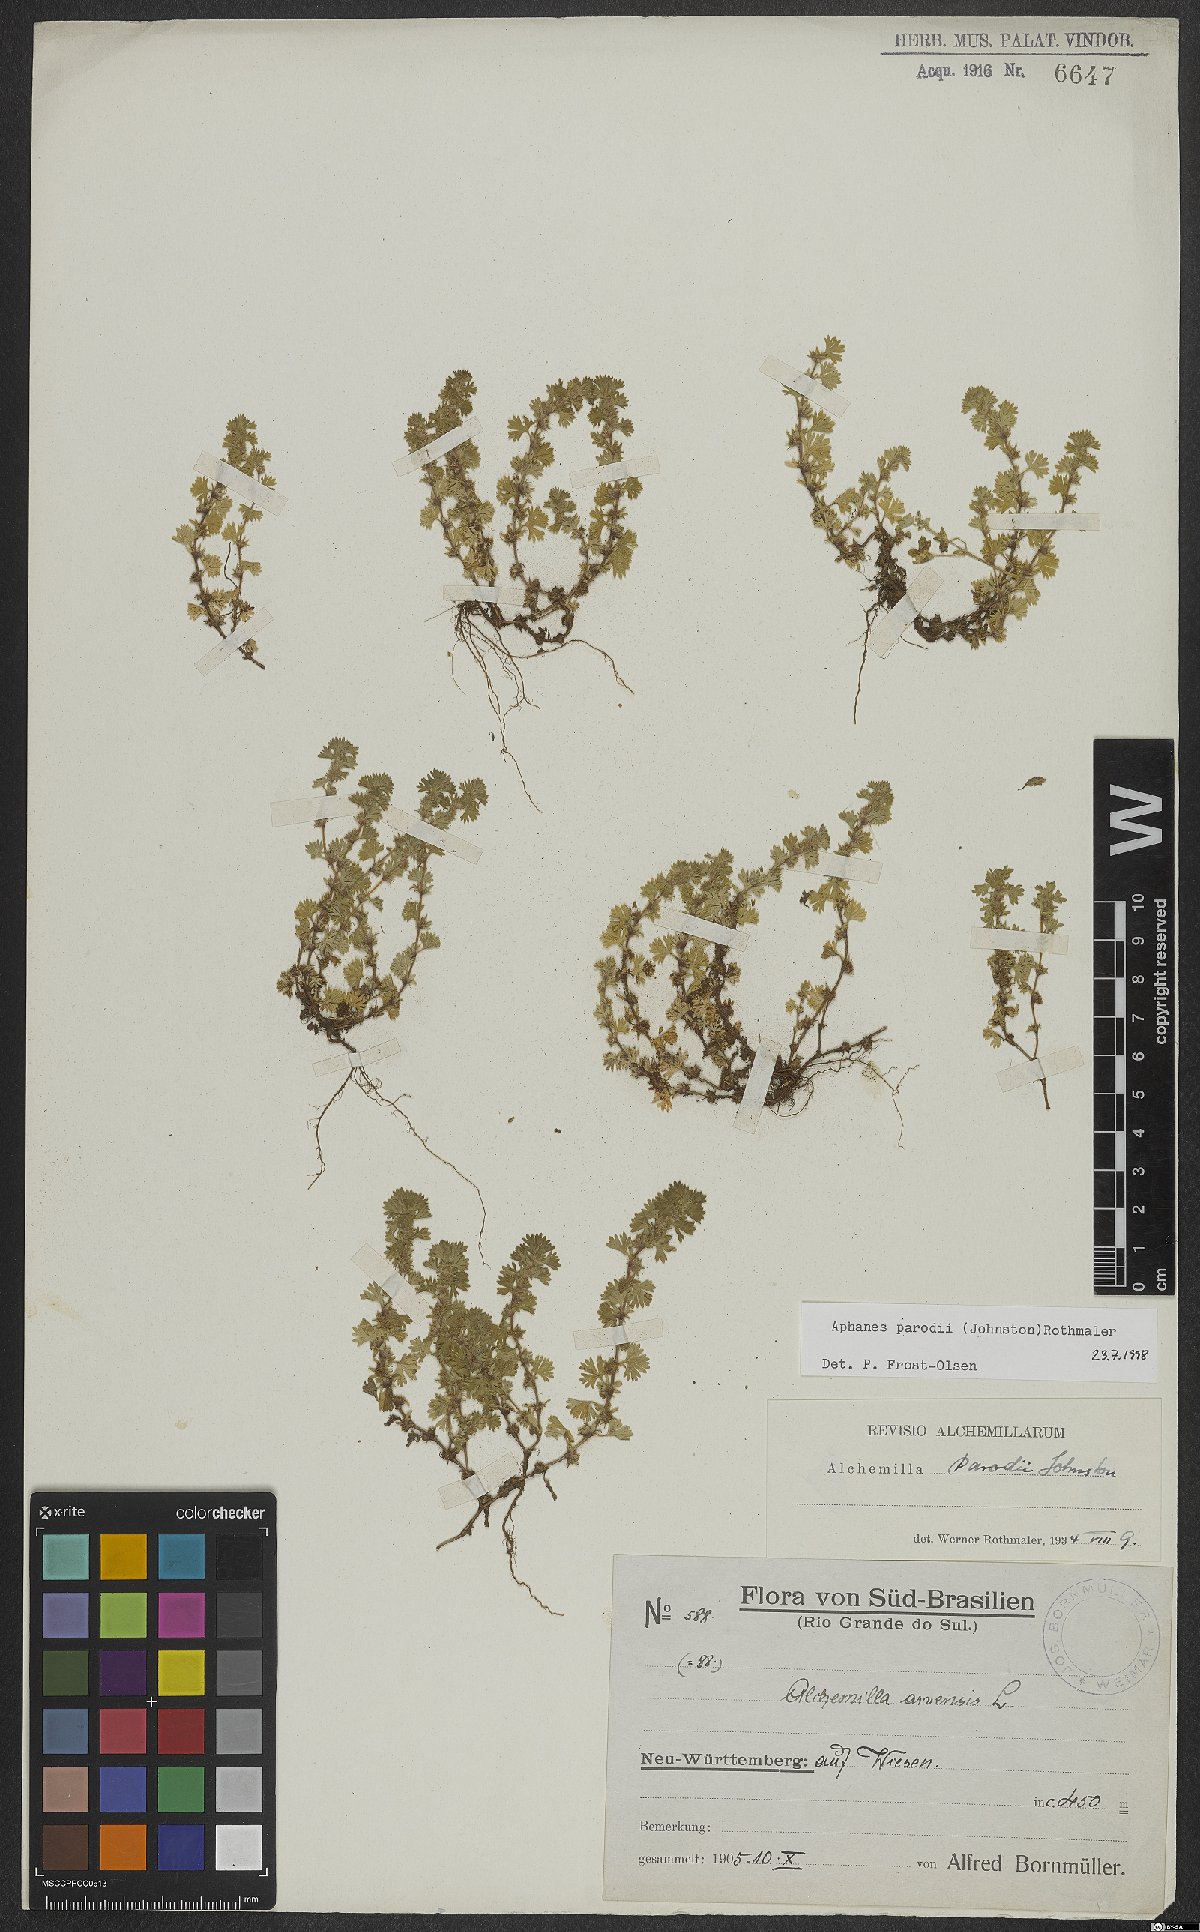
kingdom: Plantae
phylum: Tracheophyta
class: Magnoliopsida
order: Rosales
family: Rosaceae
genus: Aphanes
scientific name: Aphanes parodii
